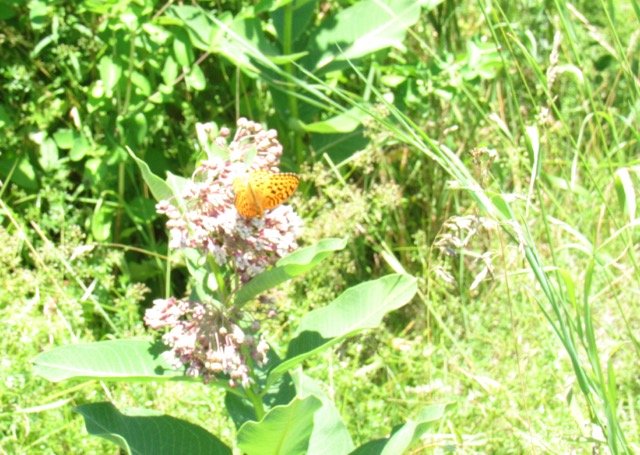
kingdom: Animalia
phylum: Arthropoda
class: Insecta
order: Lepidoptera
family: Nymphalidae
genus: Speyeria
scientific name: Speyeria cybele
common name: Great Spangled Fritillary
